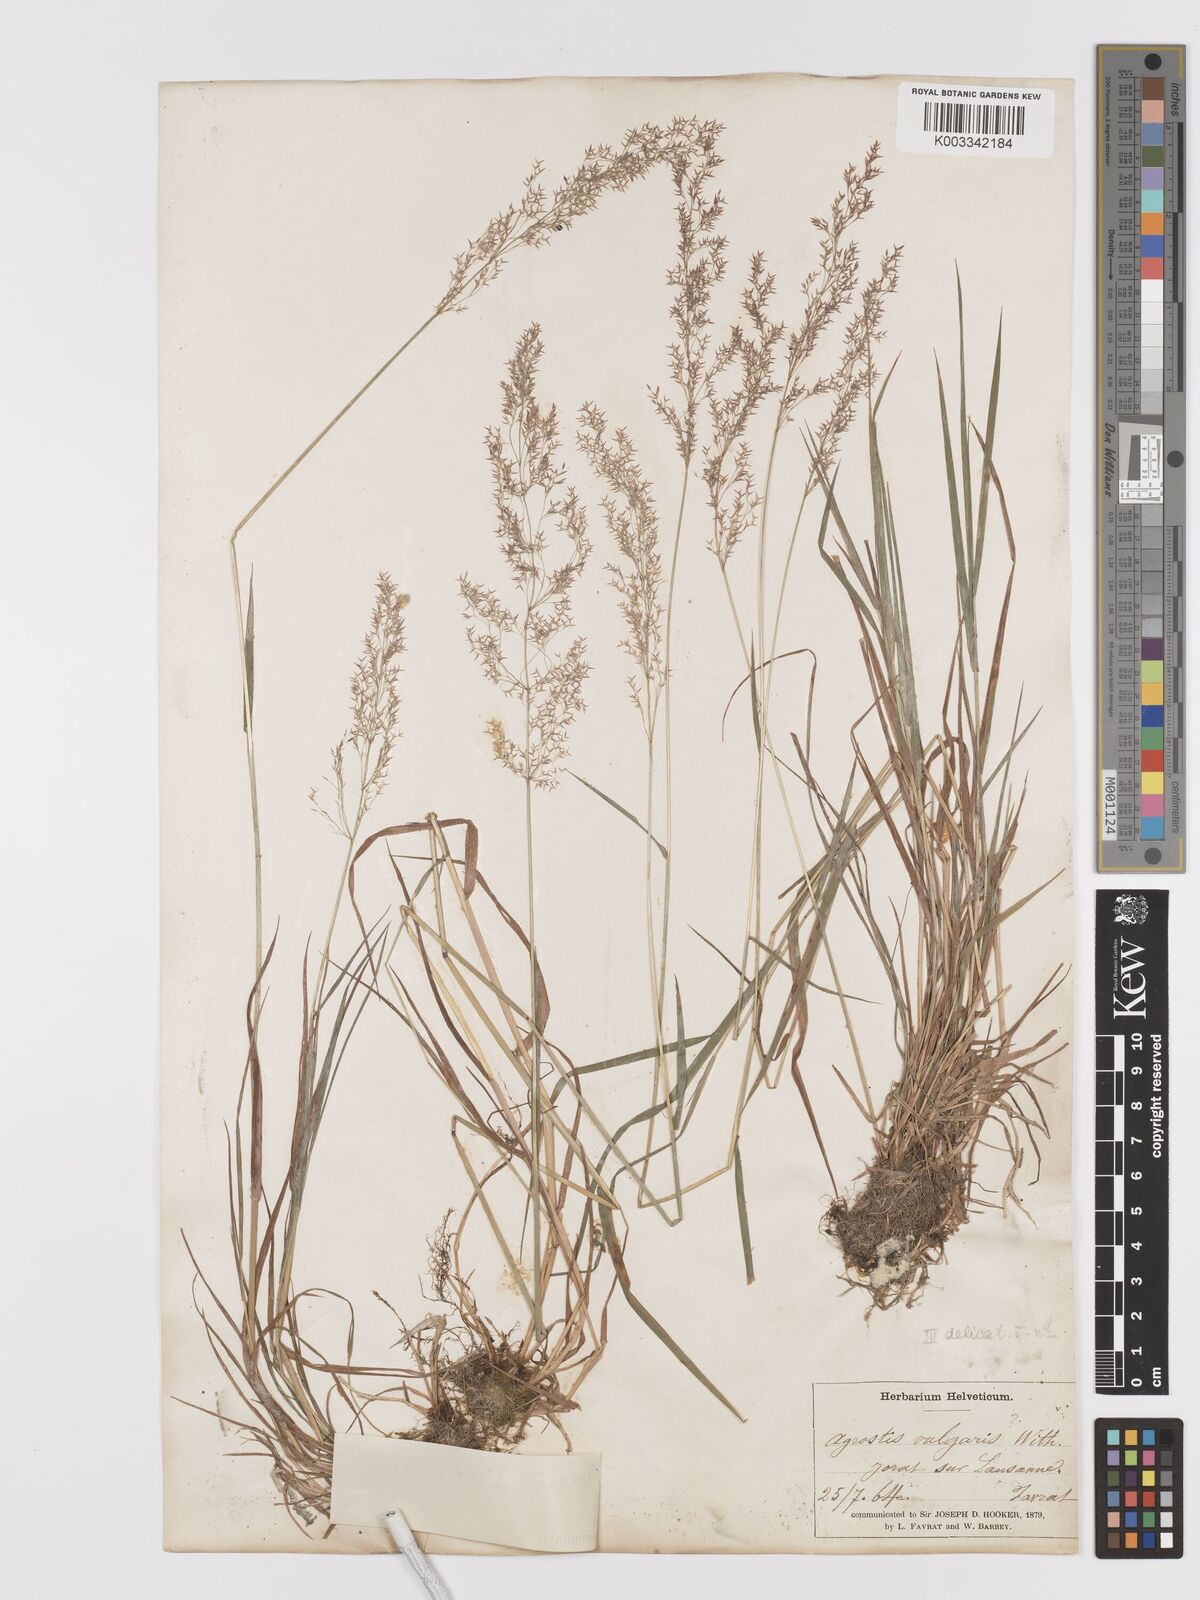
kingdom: Plantae
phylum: Tracheophyta
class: Liliopsida
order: Poales
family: Poaceae
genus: Agrostis
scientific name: Agrostis stolonifera
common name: Creeping bentgrass
